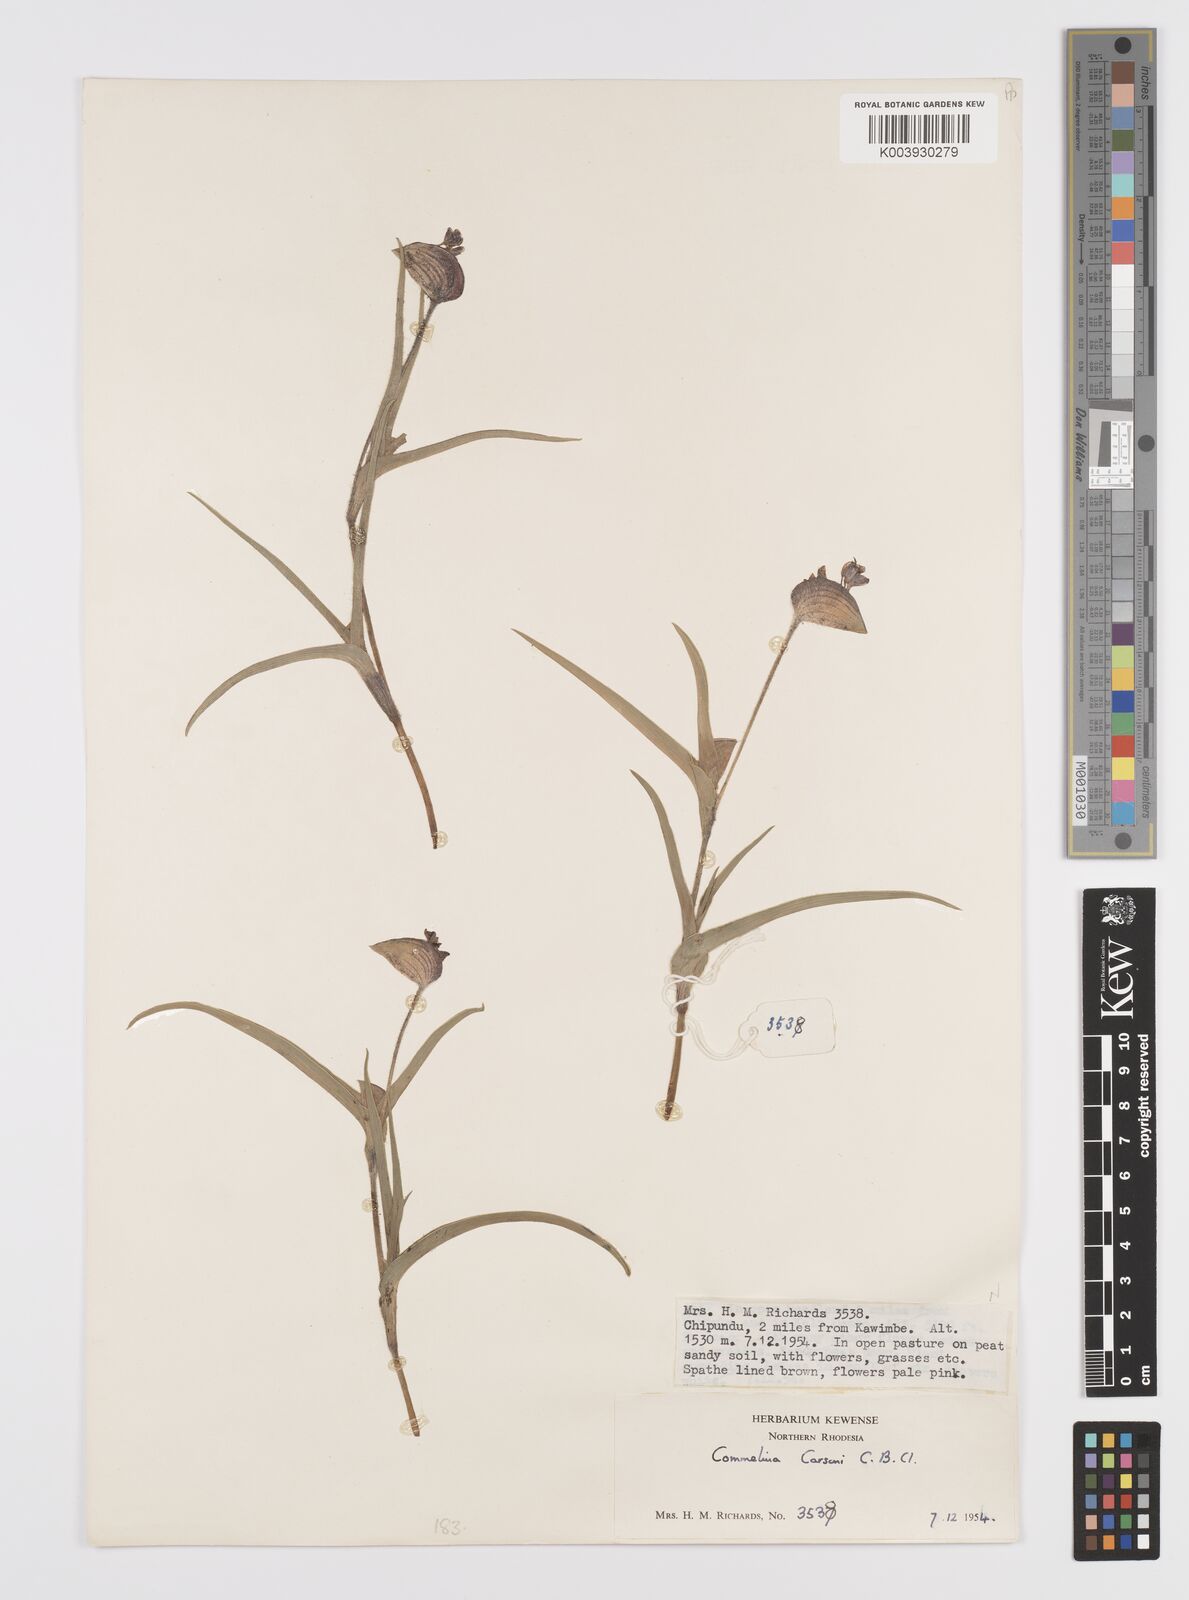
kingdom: Plantae
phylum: Tracheophyta
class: Liliopsida
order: Commelinales
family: Commelinaceae
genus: Commelina
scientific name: Commelina schweinfurthii
